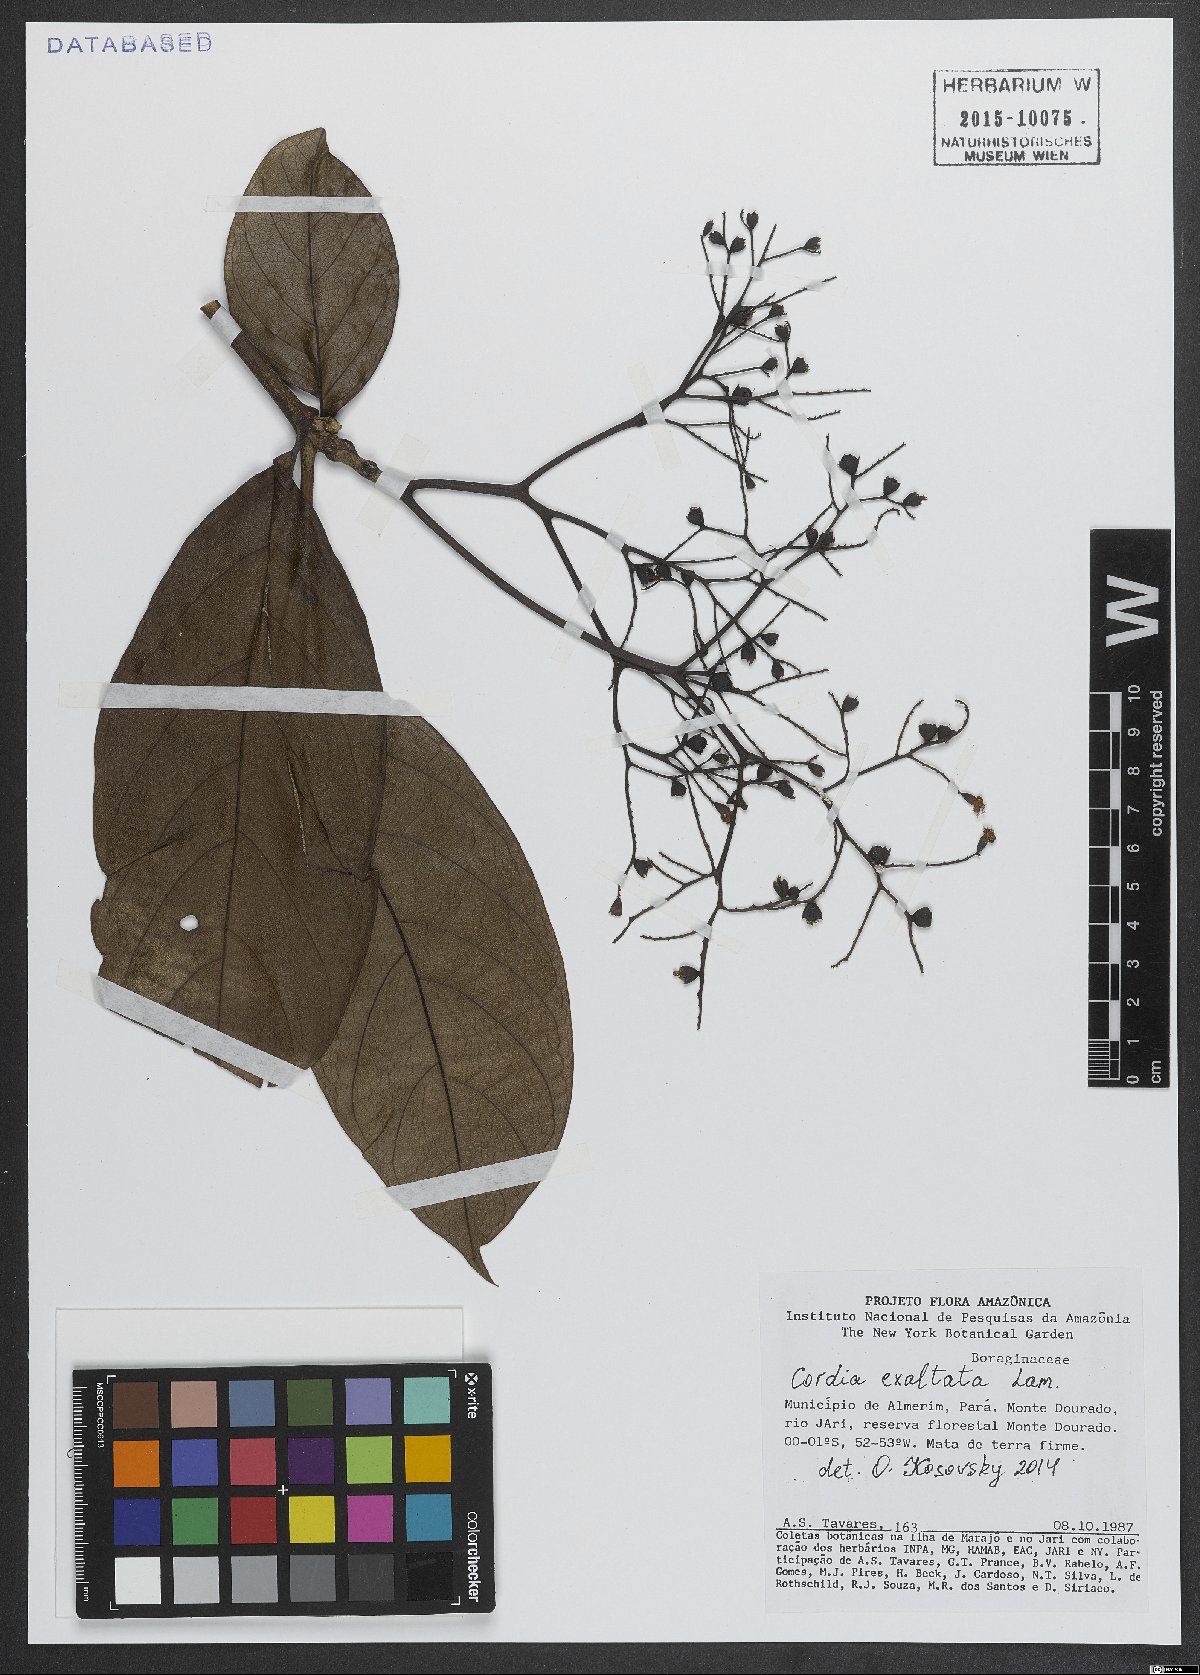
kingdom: Plantae
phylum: Tracheophyta
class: Magnoliopsida
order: Boraginales
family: Cordiaceae
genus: Cordia
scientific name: Cordia exaltata
